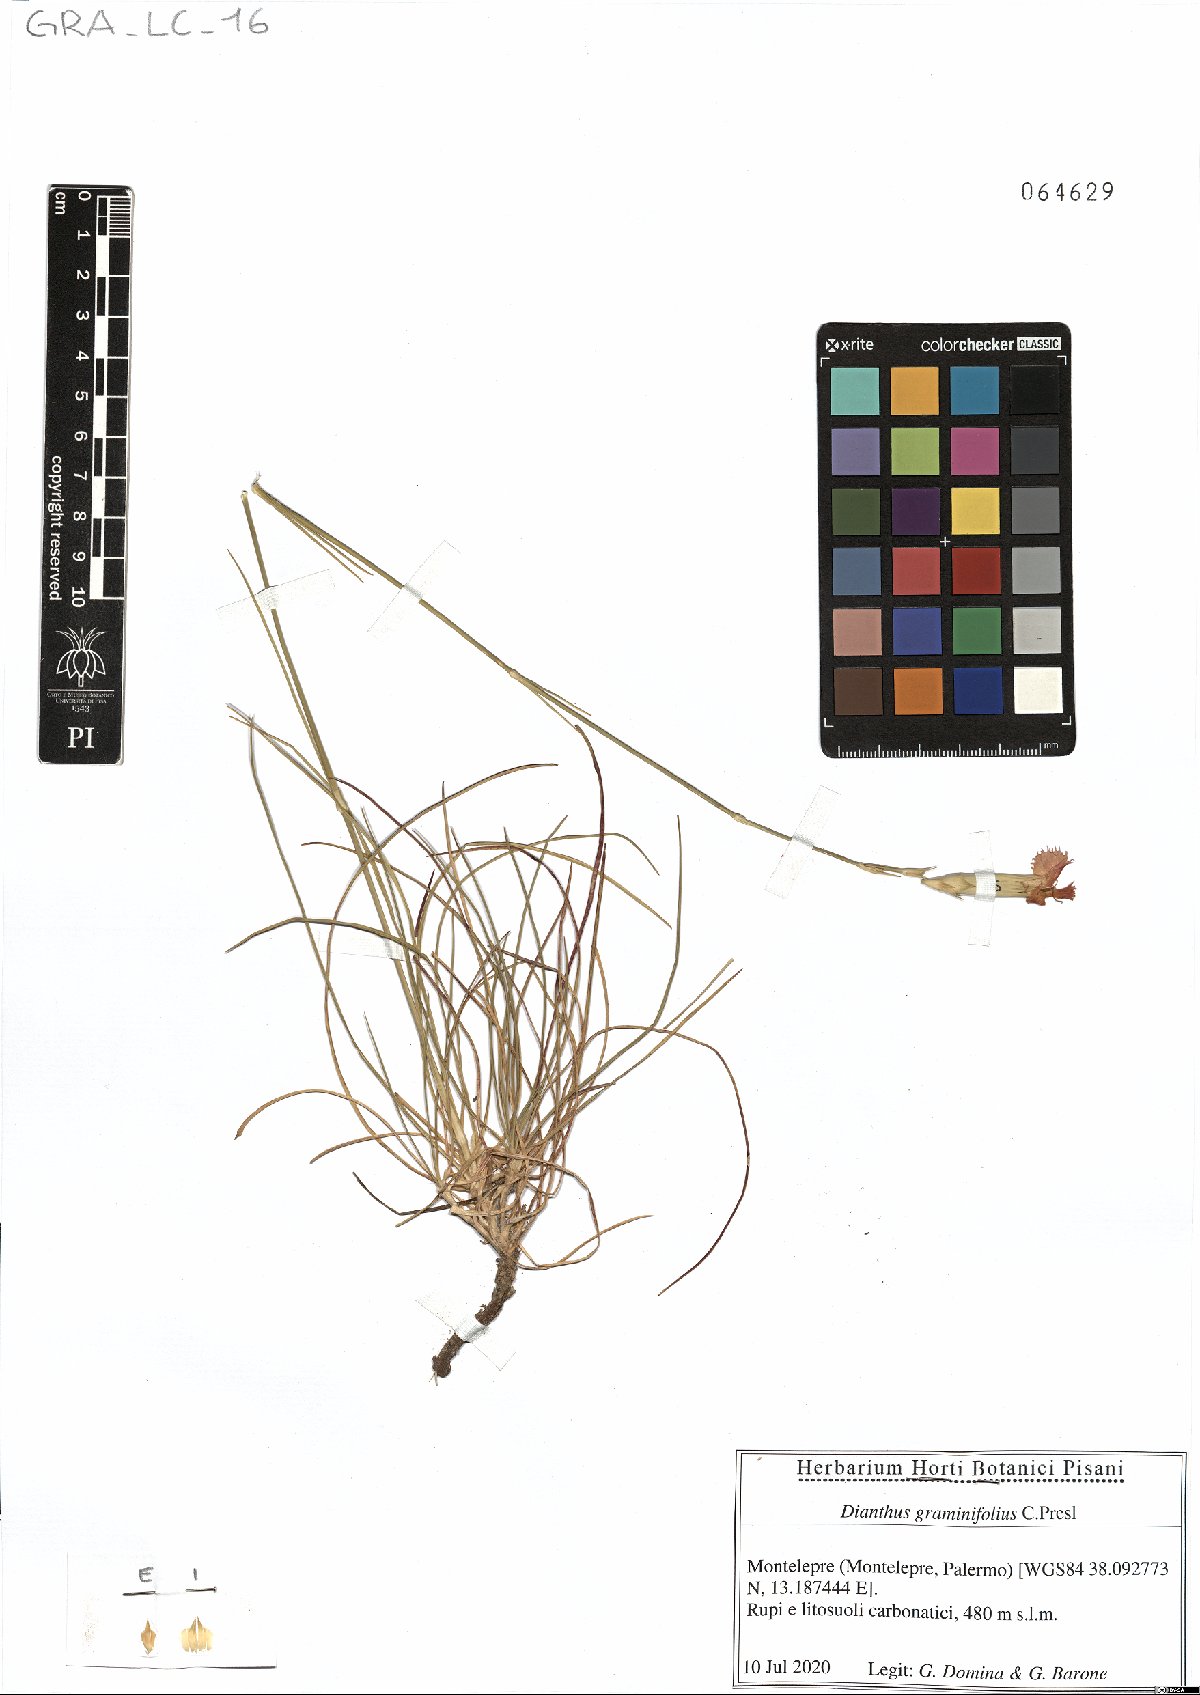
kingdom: Plantae
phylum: Tracheophyta
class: Magnoliopsida
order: Caryophyllales
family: Caryophyllaceae
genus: Dianthus
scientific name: Dianthus graminifolius
